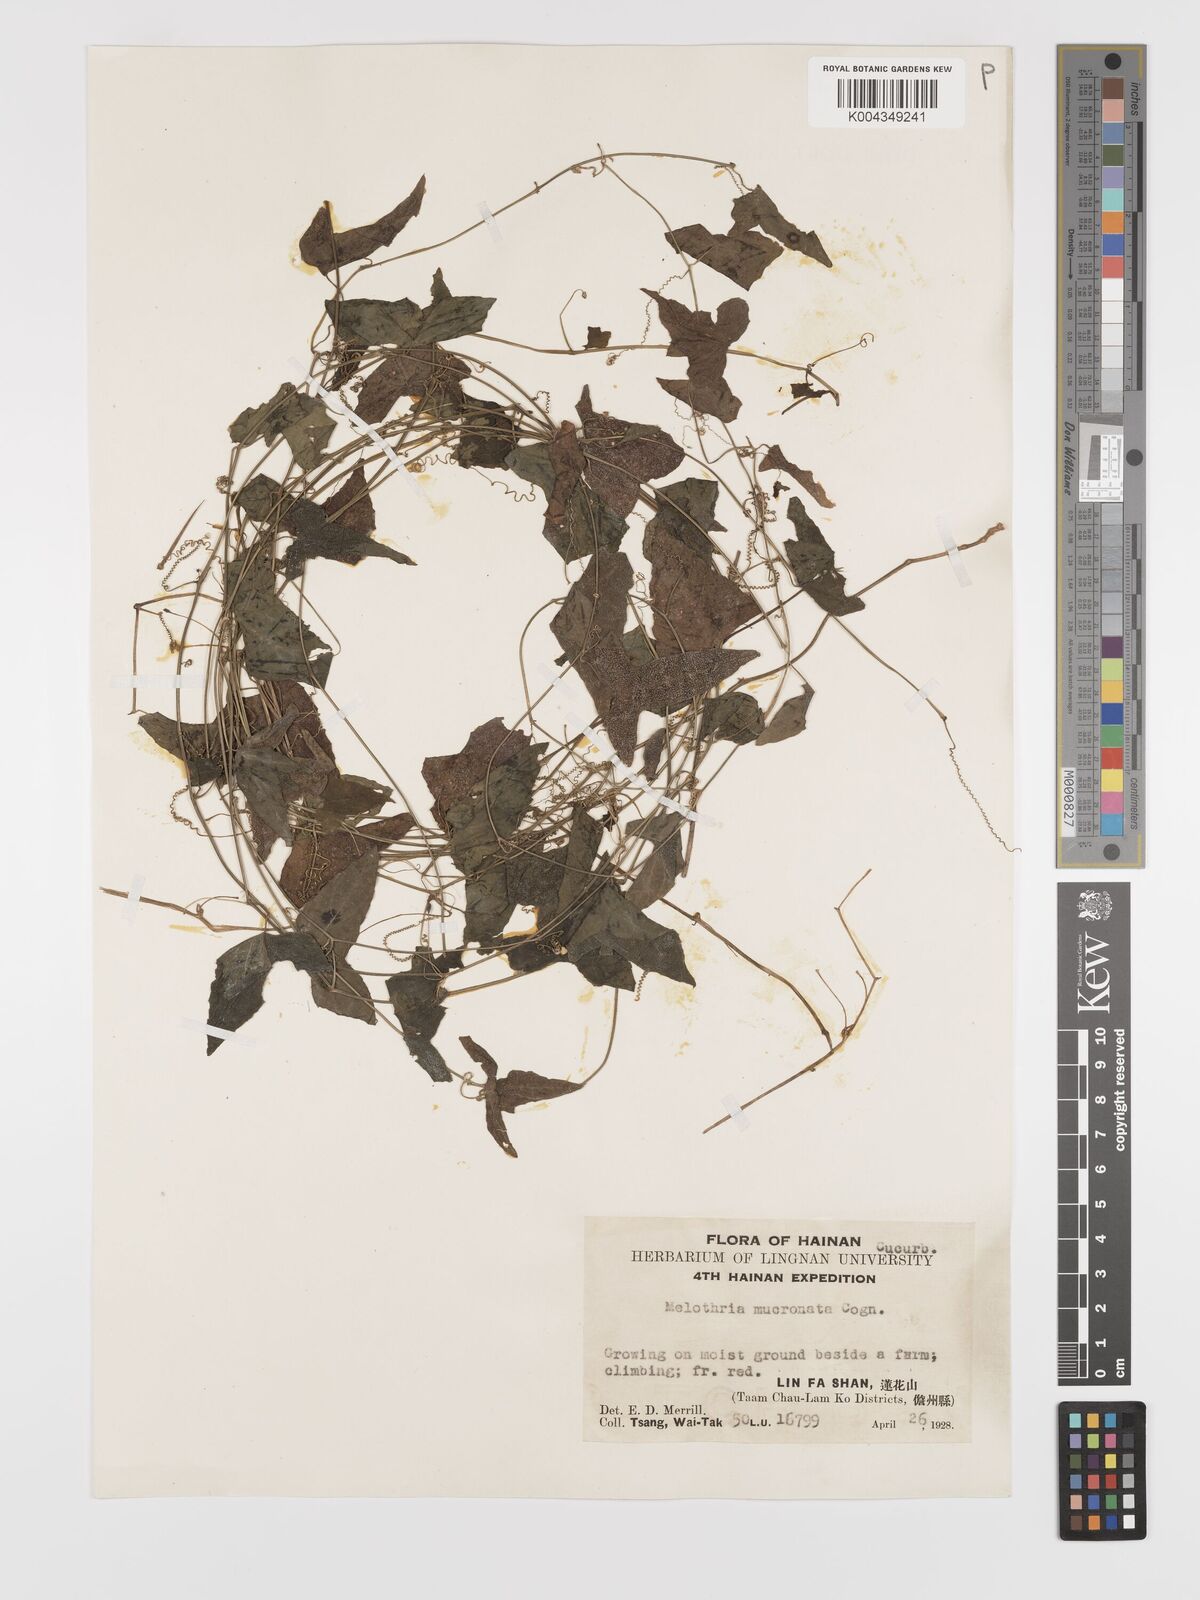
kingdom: Plantae
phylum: Tracheophyta
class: Magnoliopsida
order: Cucurbitales
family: Cucurbitaceae
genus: Zehneria
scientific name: Zehneria japonica
